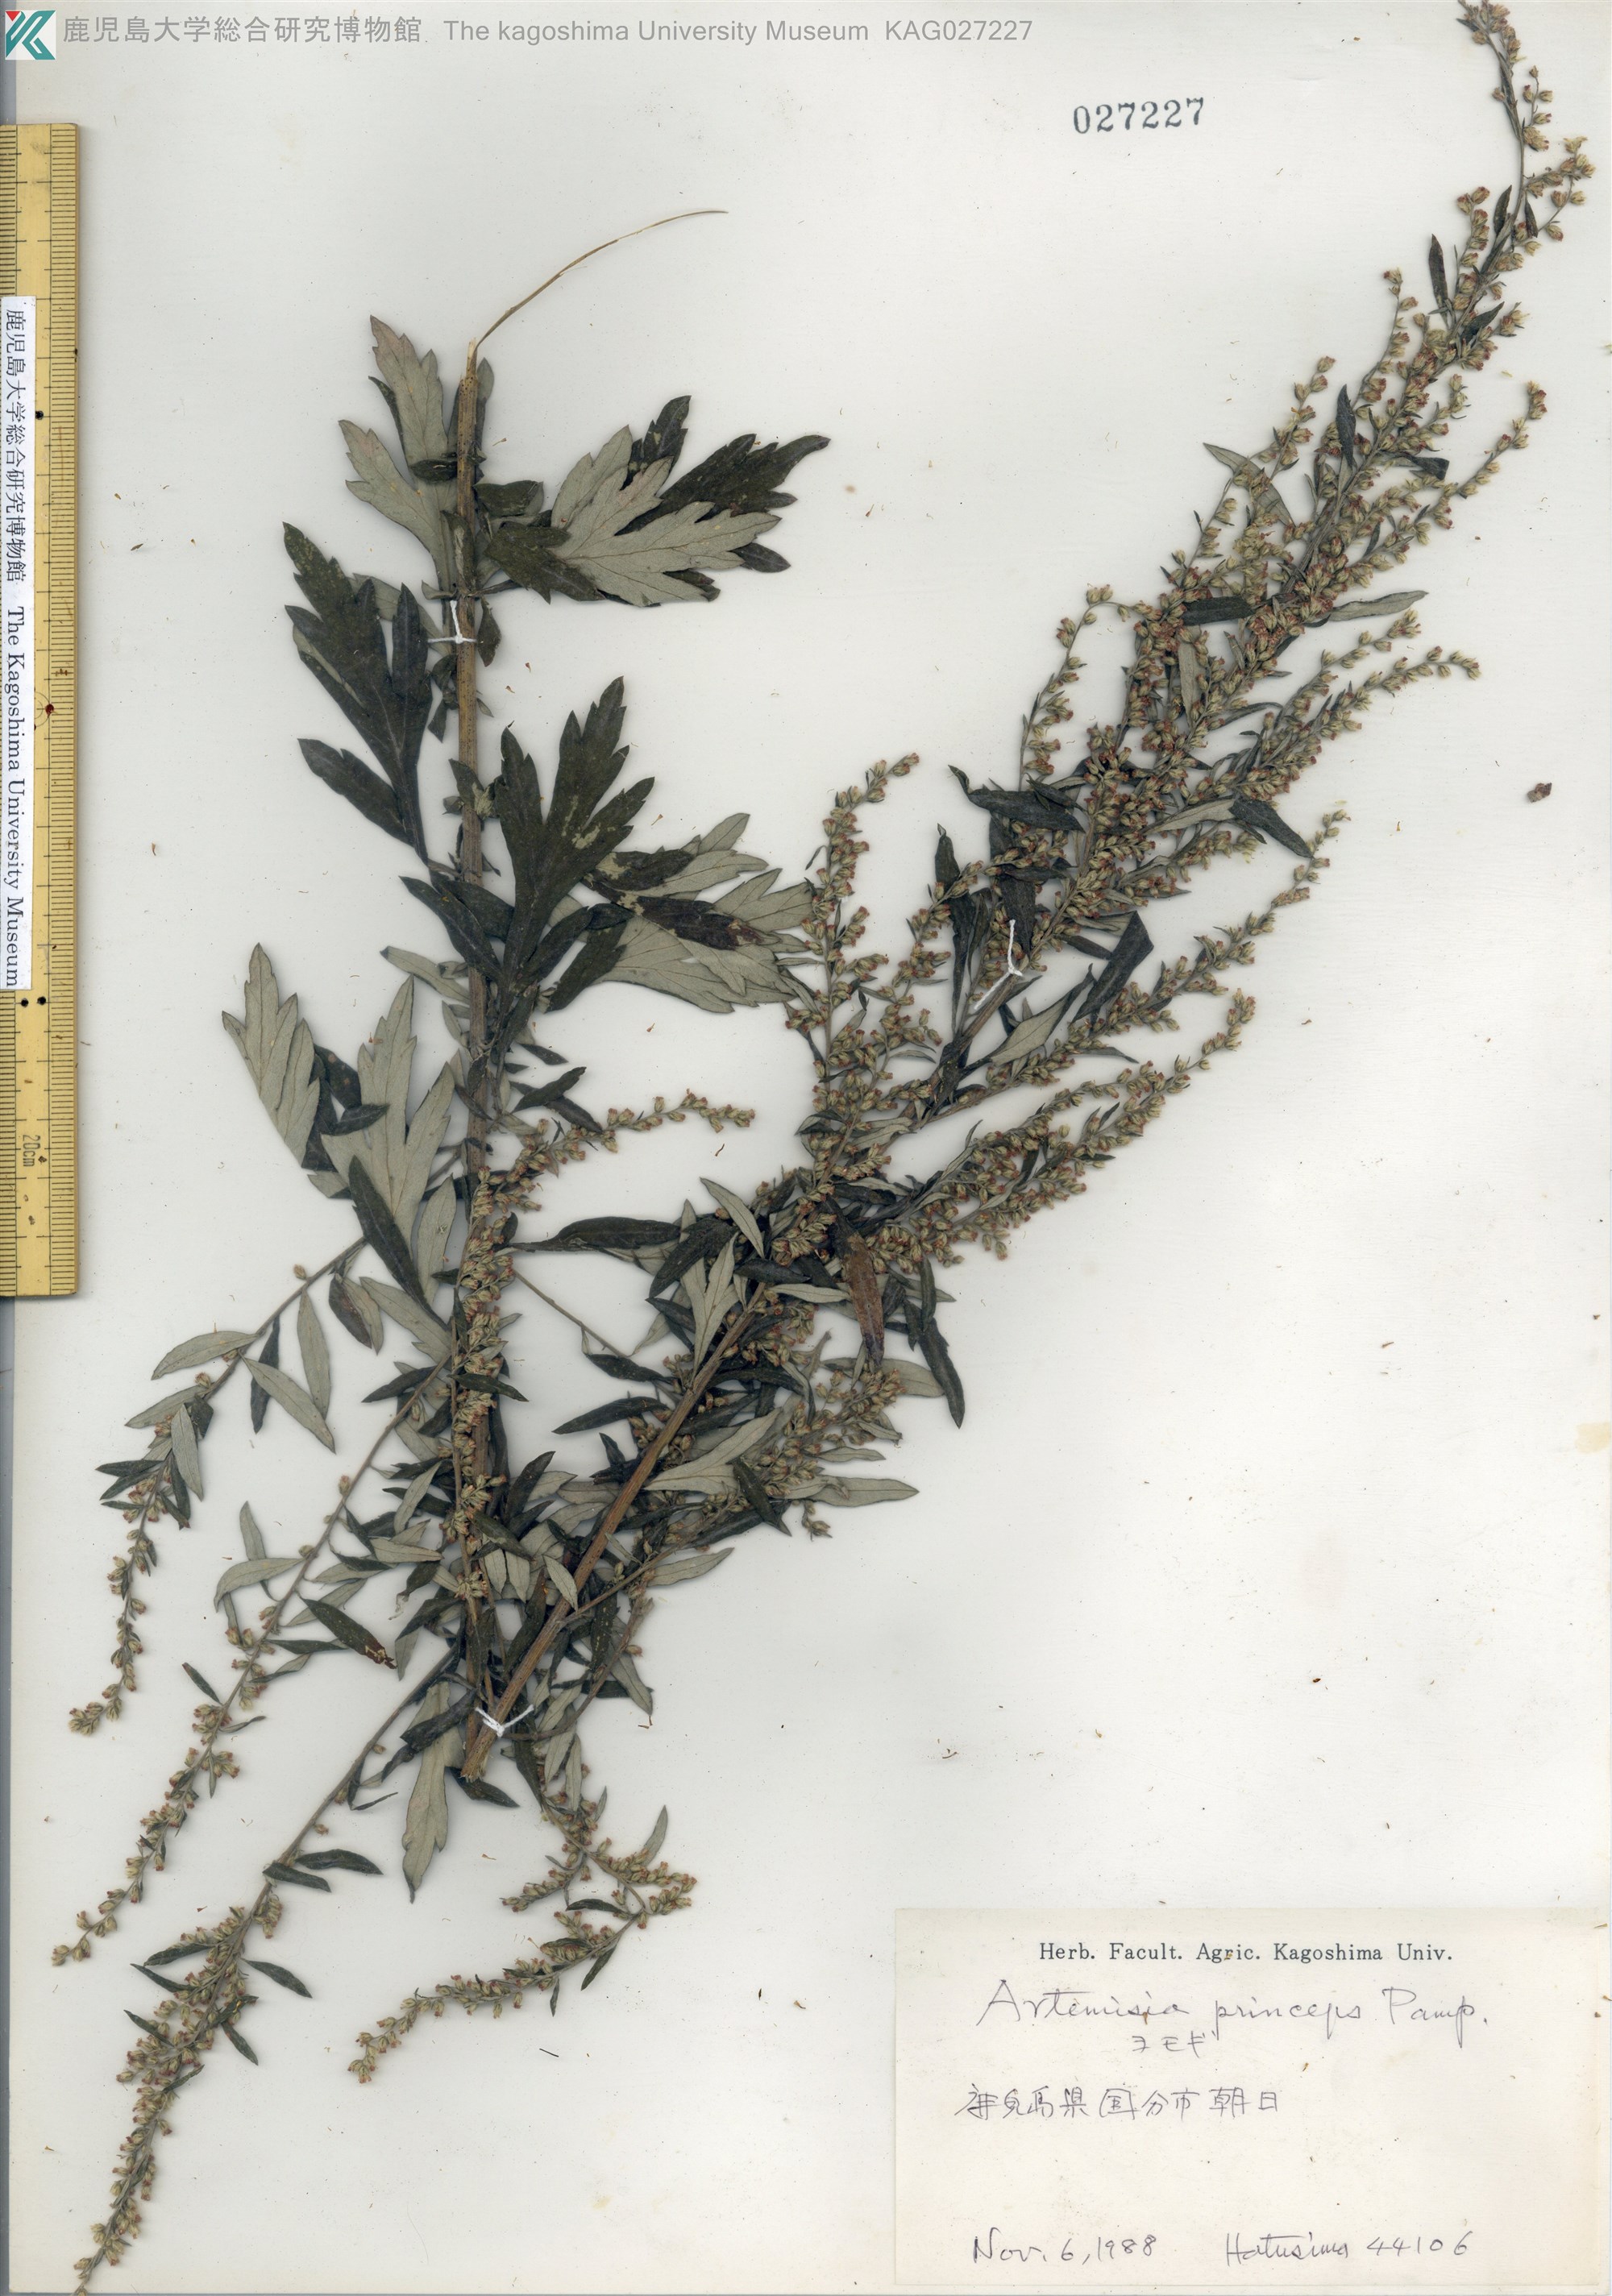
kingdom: Plantae
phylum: Tracheophyta
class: Magnoliopsida
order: Asterales
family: Asteraceae
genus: Artemisia
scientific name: Artemisia princeps
